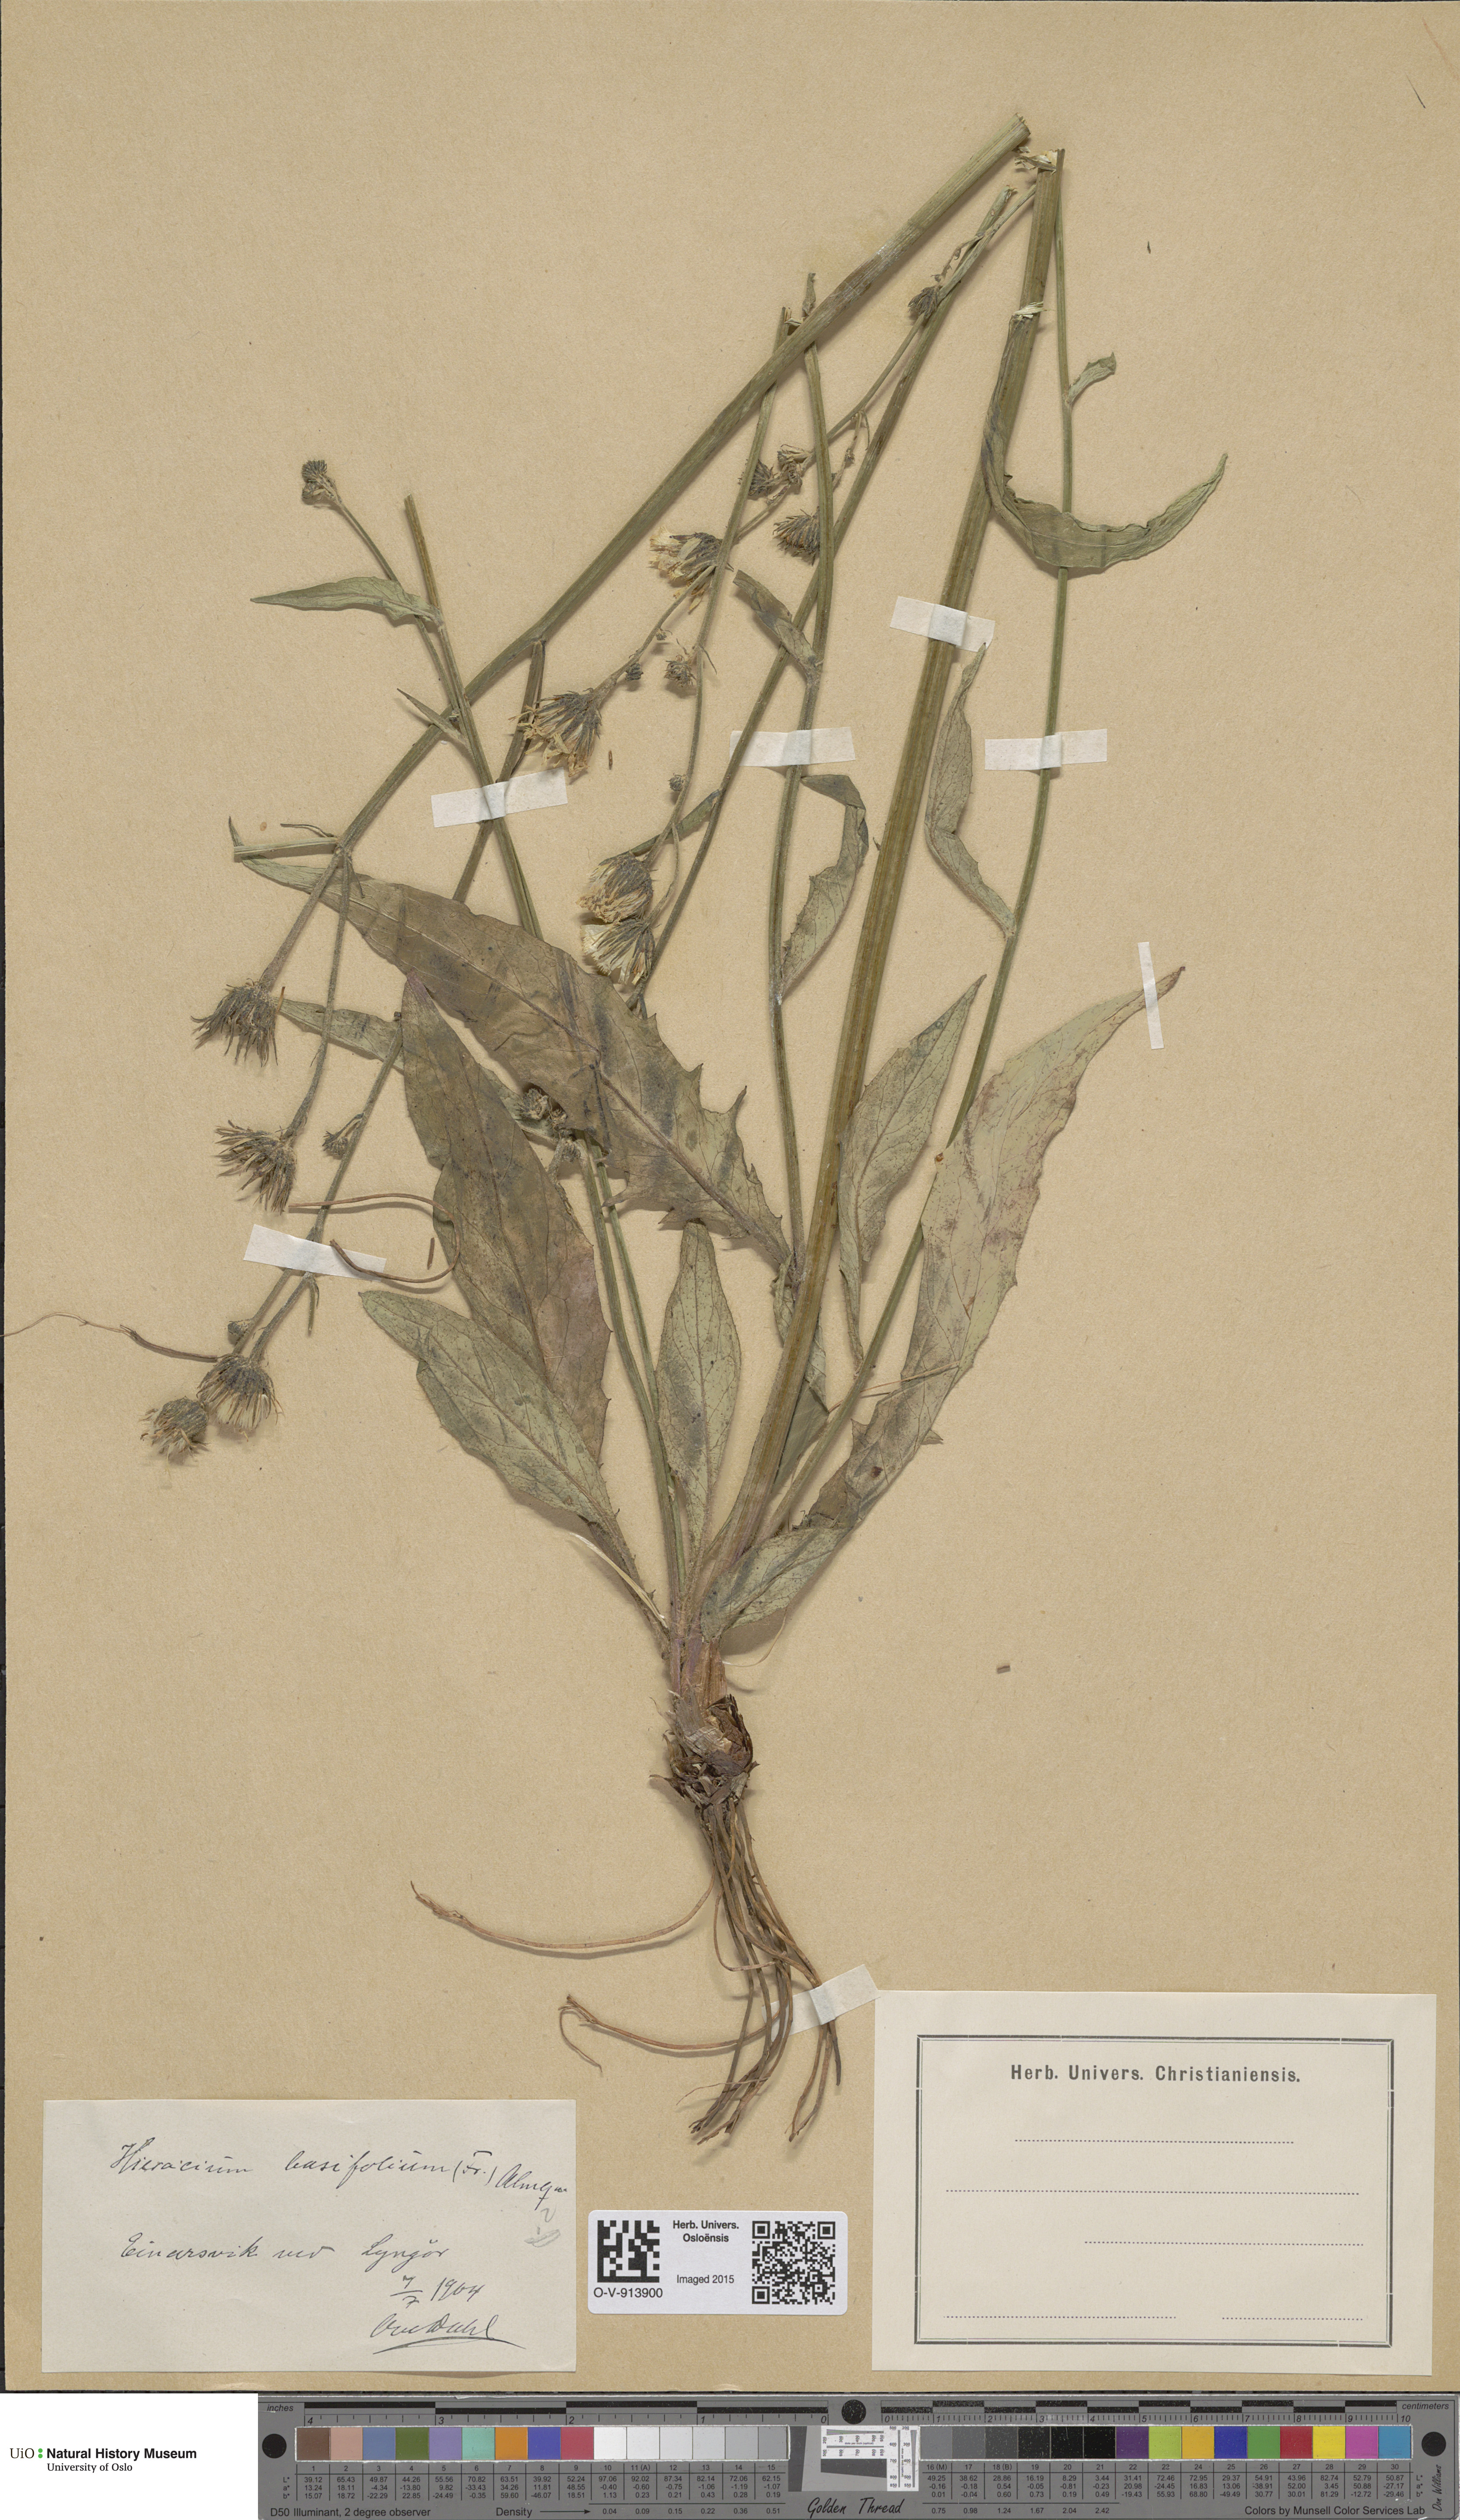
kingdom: Plantae
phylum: Tracheophyta
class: Magnoliopsida
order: Asterales
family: Asteraceae
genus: Hieracium
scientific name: Hieracium basifolium
